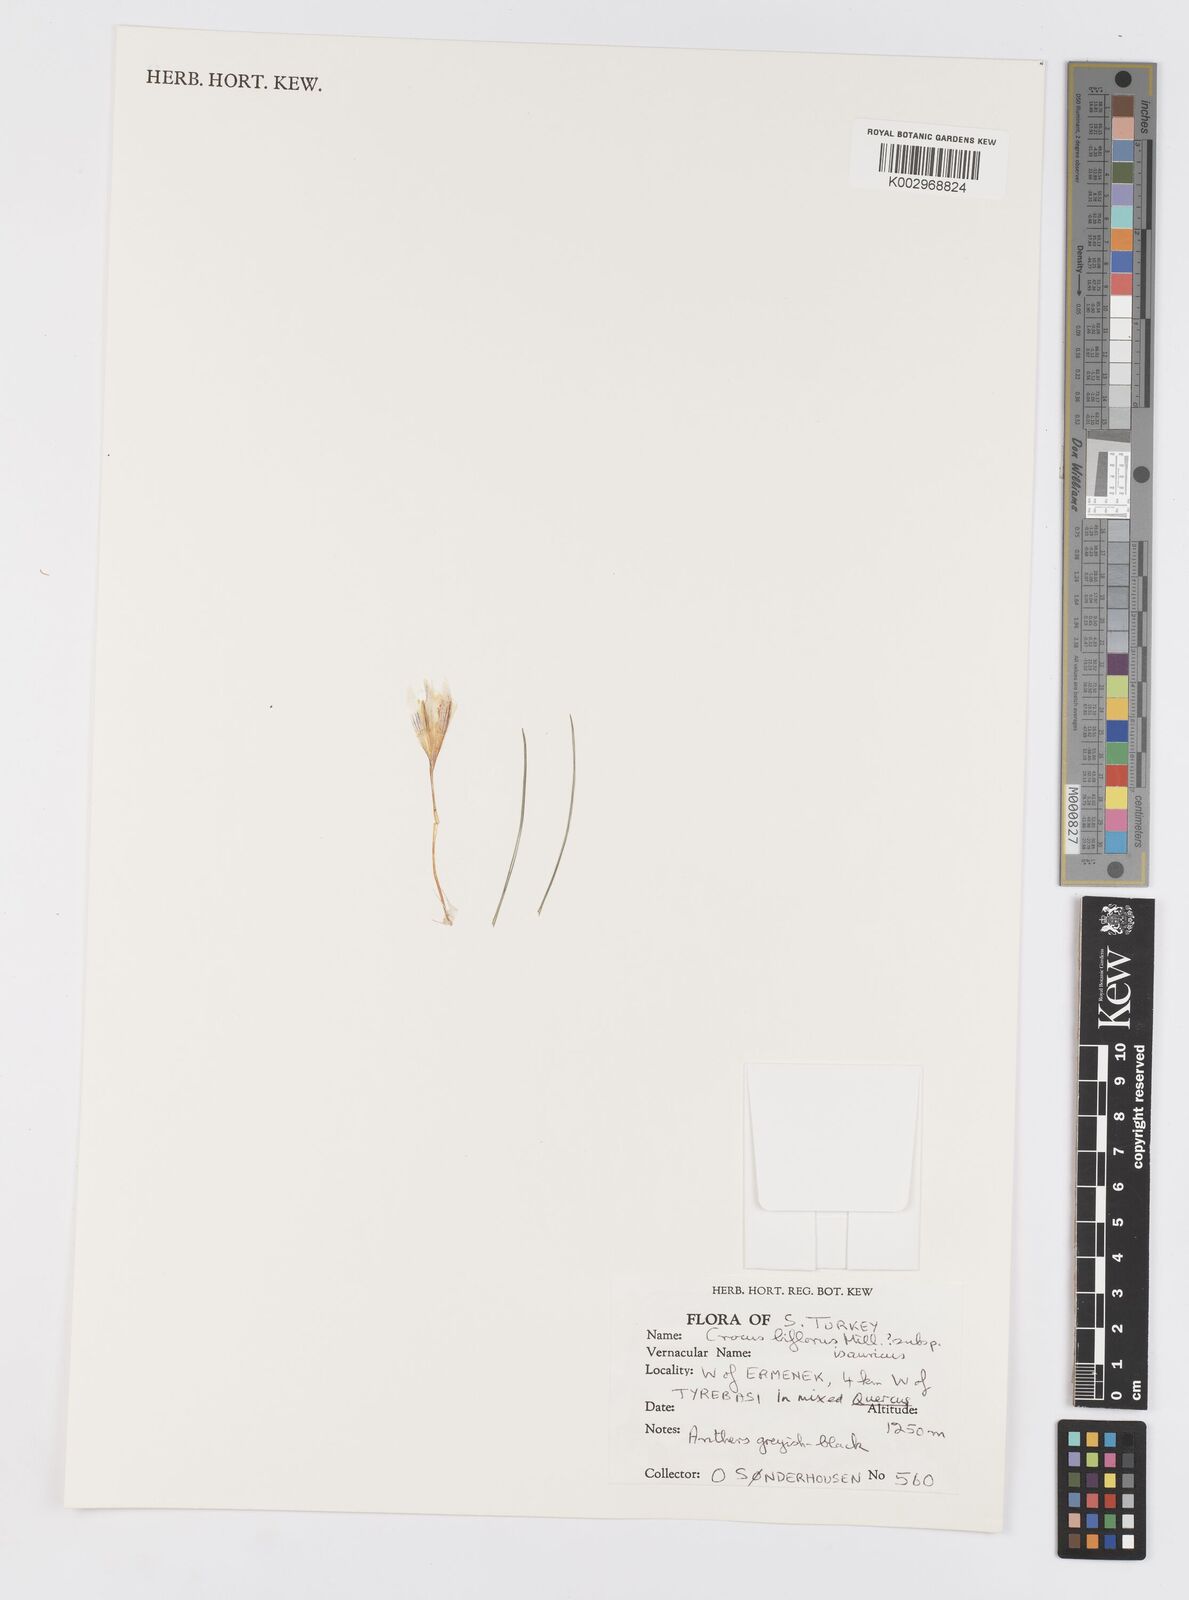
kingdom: Plantae
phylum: Tracheophyta
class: Liliopsida
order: Asparagales
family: Iridaceae
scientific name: Iridaceae
